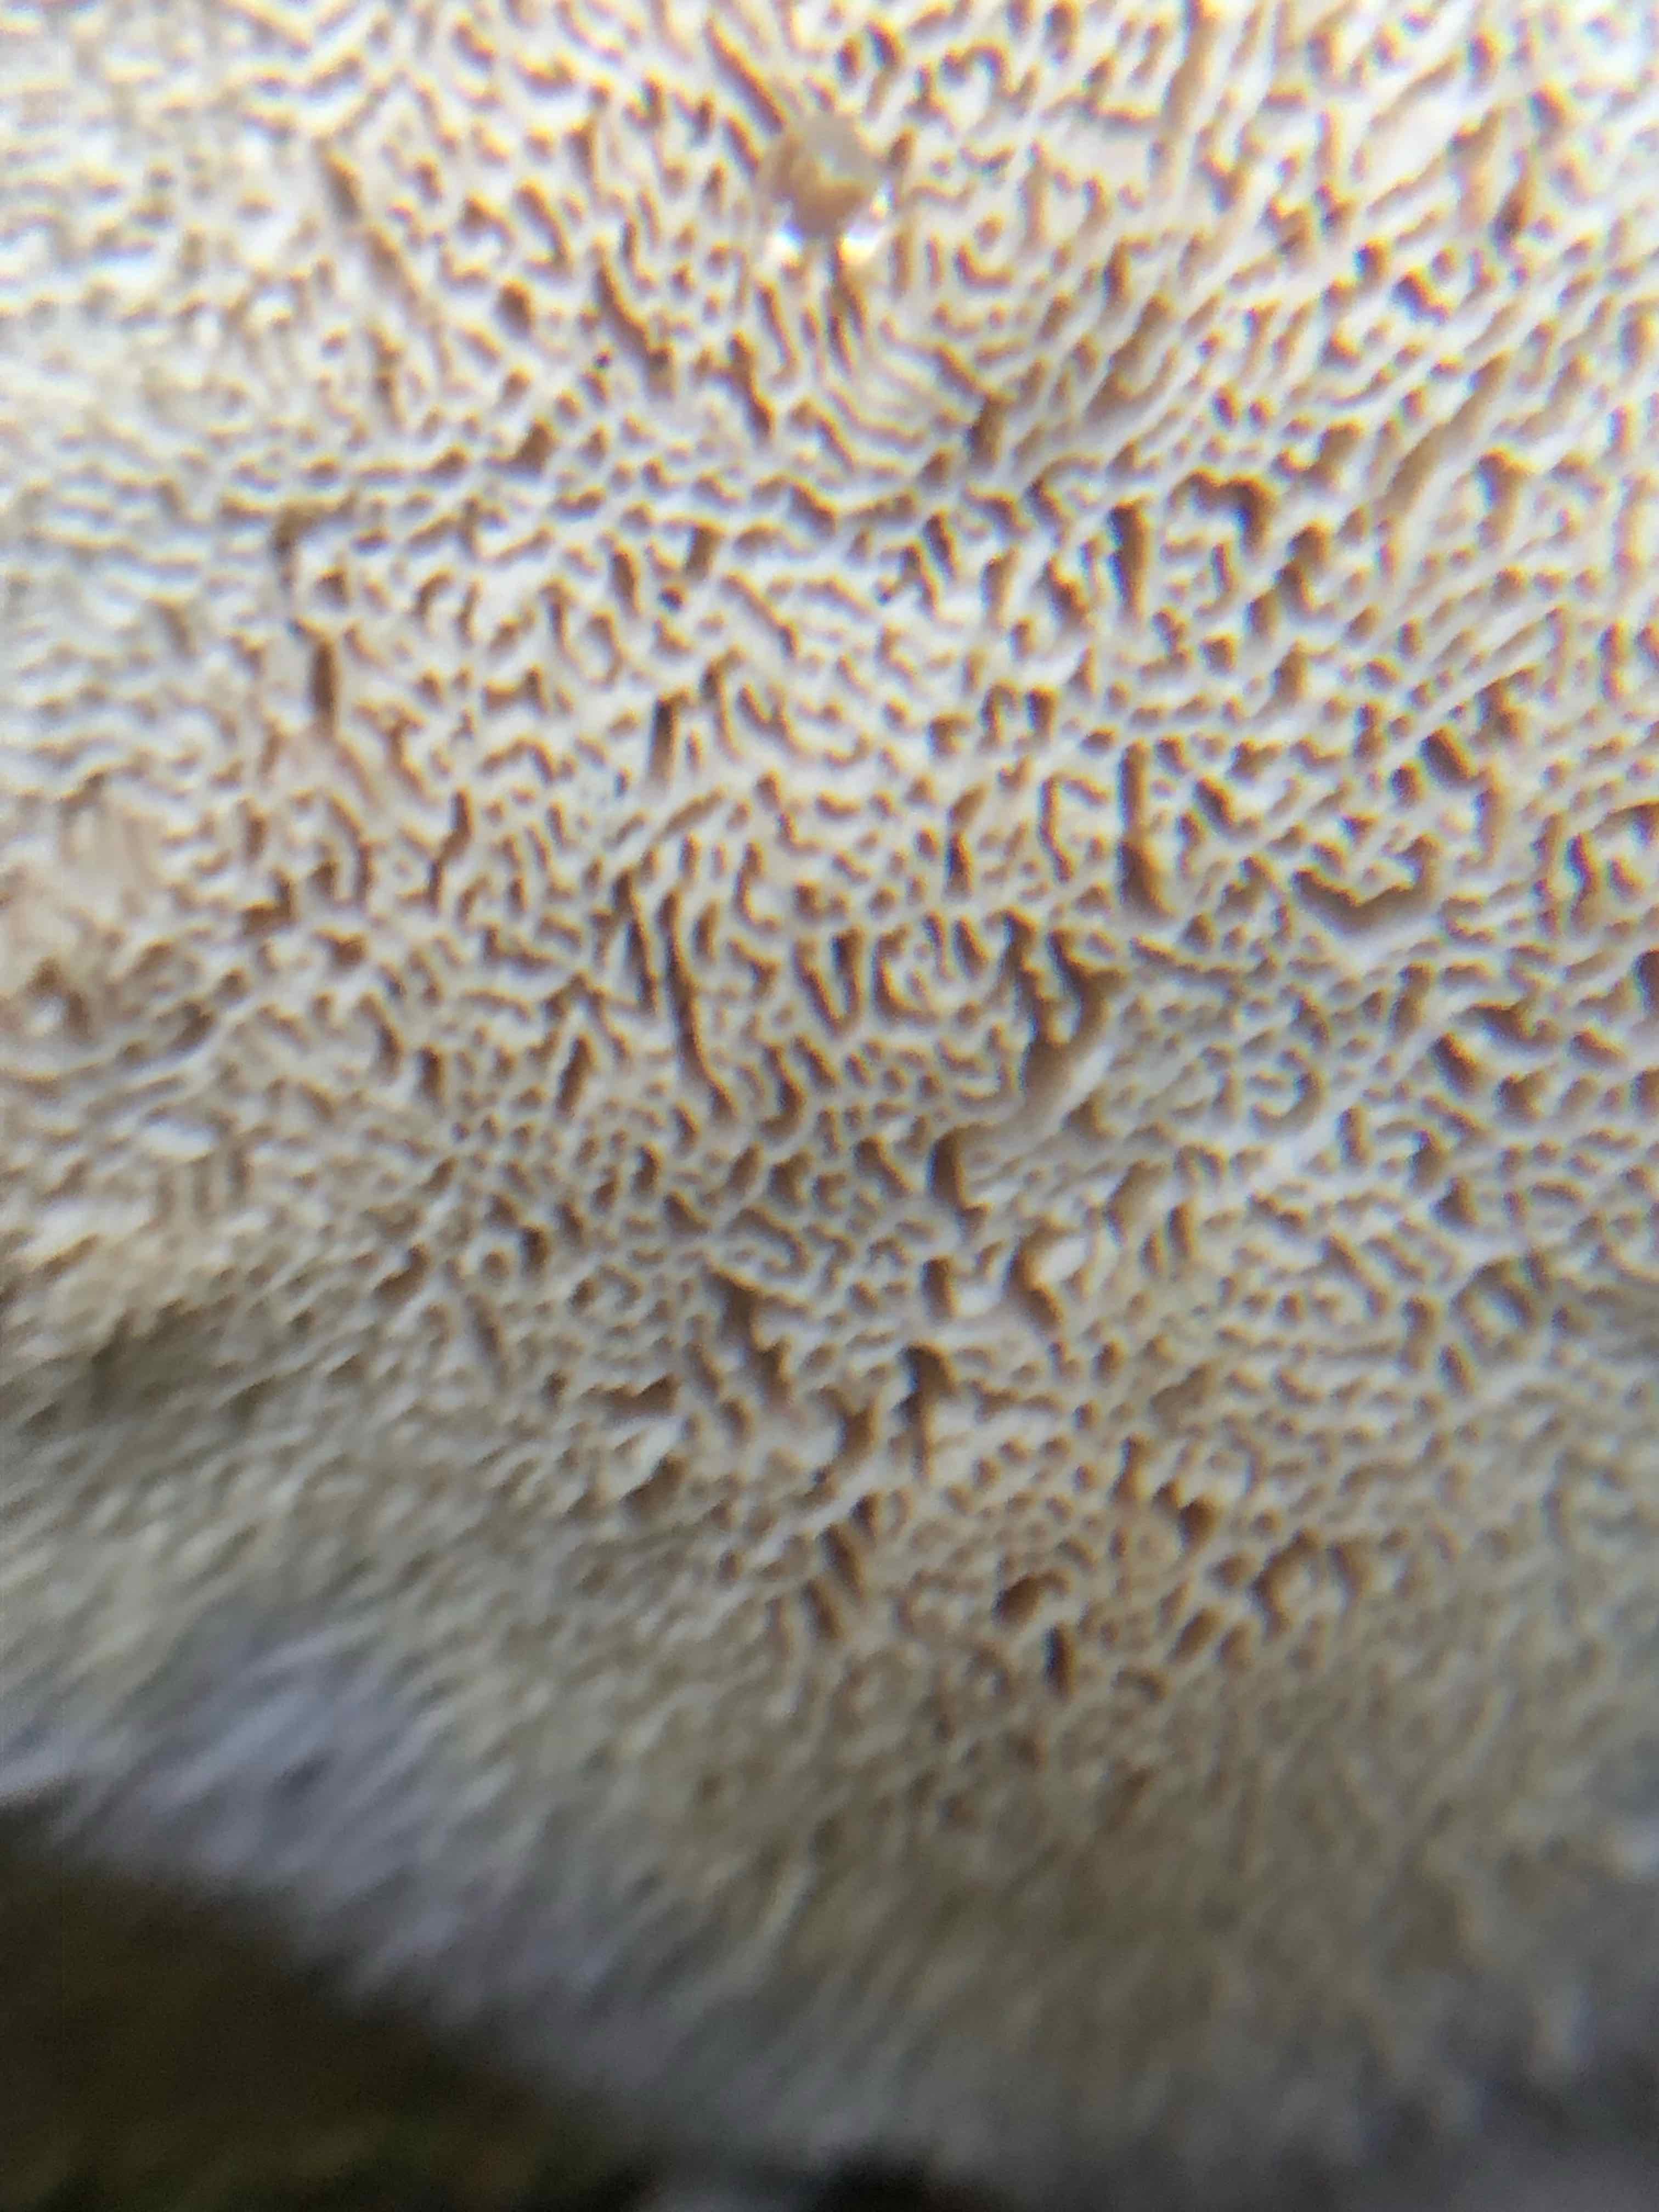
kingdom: Fungi
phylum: Basidiomycota
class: Agaricomycetes
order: Hymenochaetales
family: Schizoporaceae
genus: Xylodon
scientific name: Xylodon subtropicus
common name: labyrint-tandsvamp
